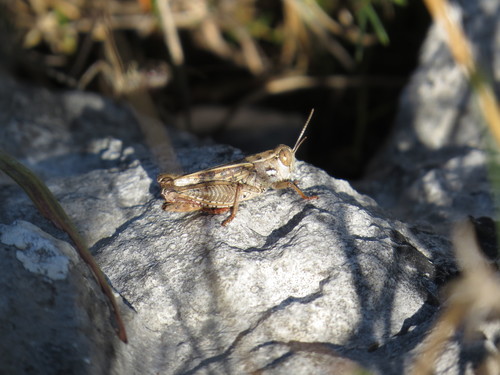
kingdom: Animalia
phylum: Arthropoda
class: Insecta
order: Orthoptera
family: Acrididae
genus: Calliptamus
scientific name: Calliptamus wattenwylianus
